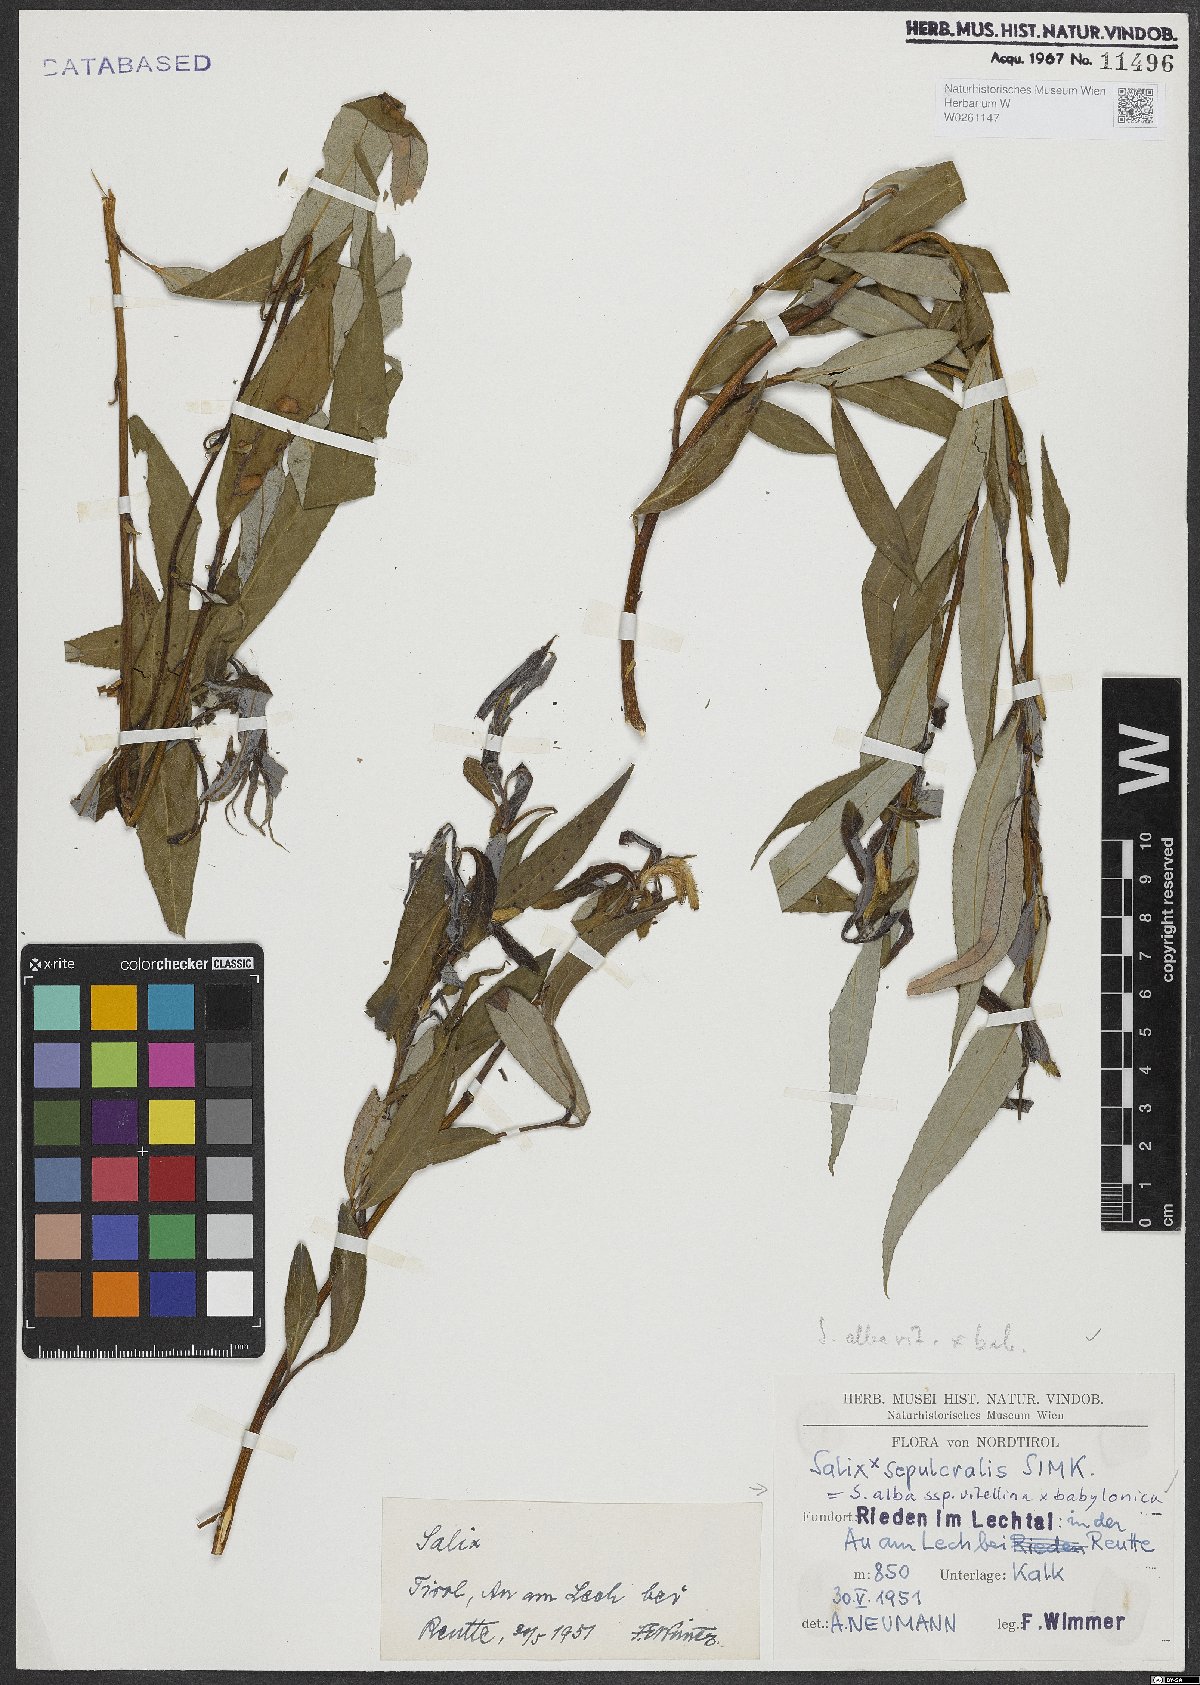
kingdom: Plantae
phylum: Tracheophyta
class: Magnoliopsida
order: Malpighiales
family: Salicaceae
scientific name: Salicaceae
